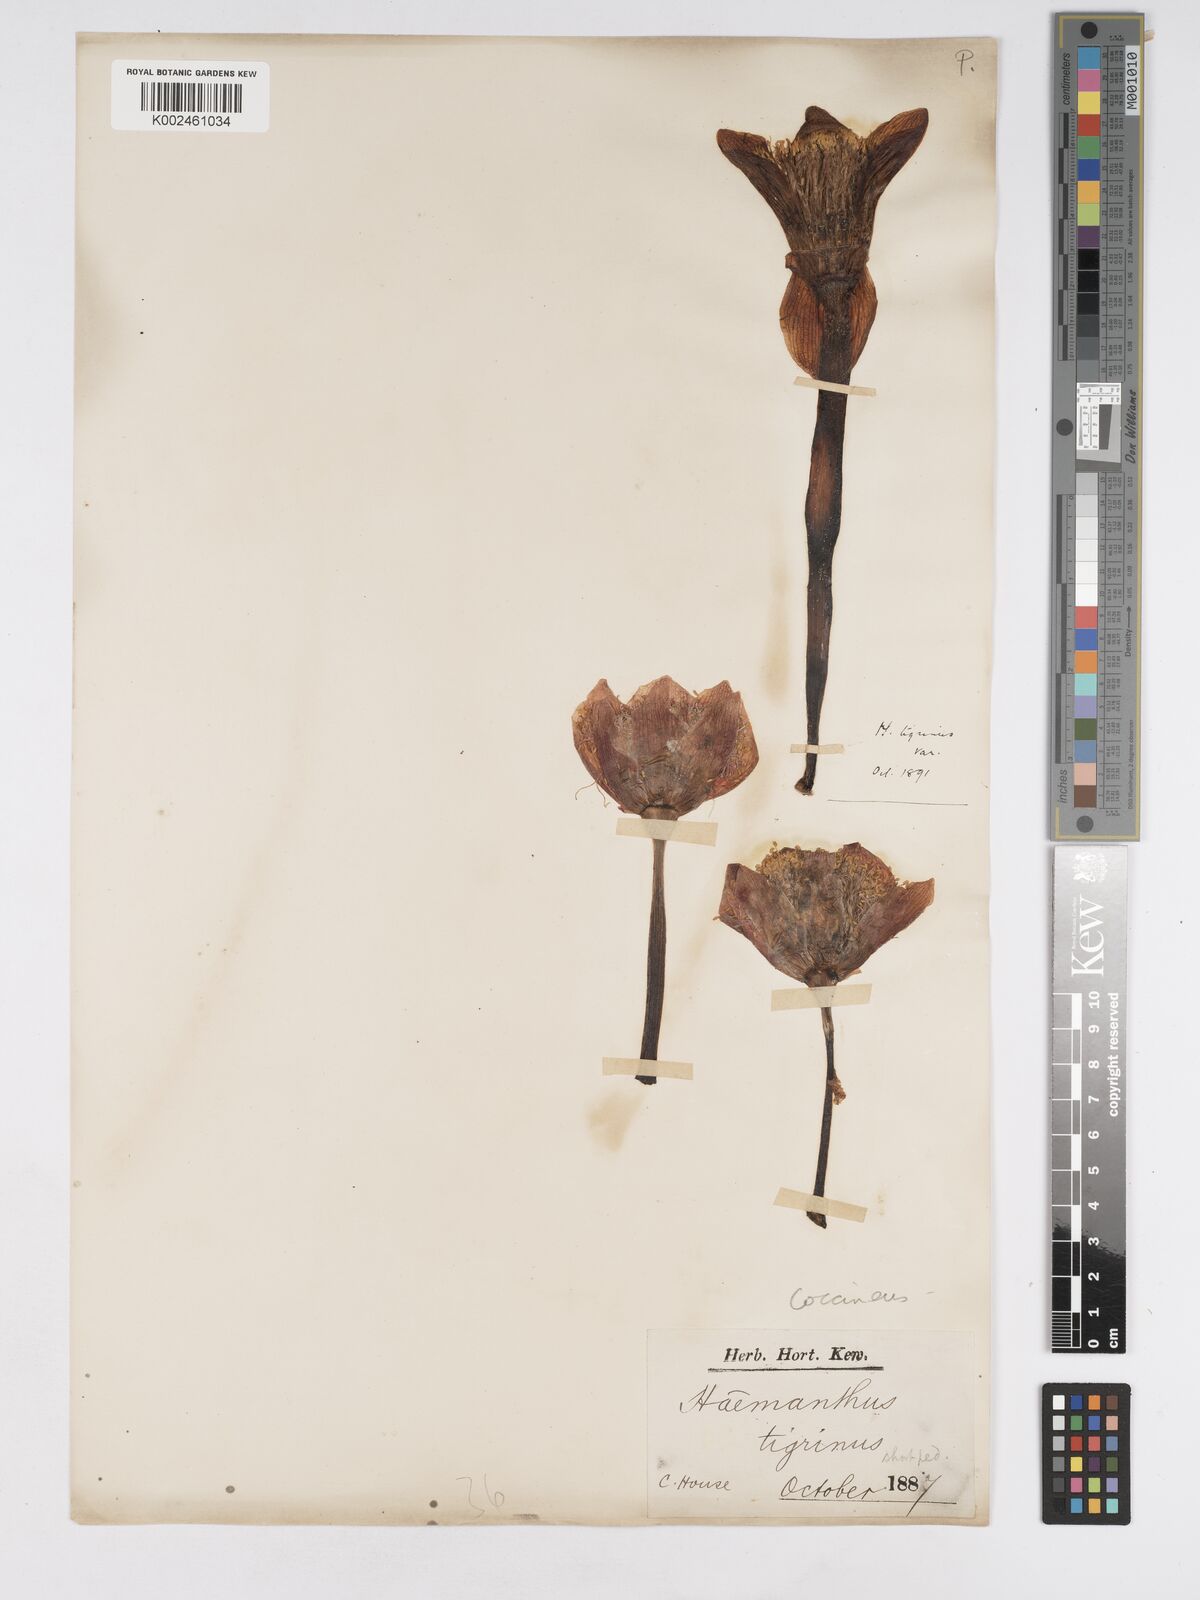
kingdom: Plantae
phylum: Tracheophyta
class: Liliopsida
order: Asparagales
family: Amaryllidaceae
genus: Haemanthus
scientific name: Haemanthus coccineus
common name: Cape-tulip
